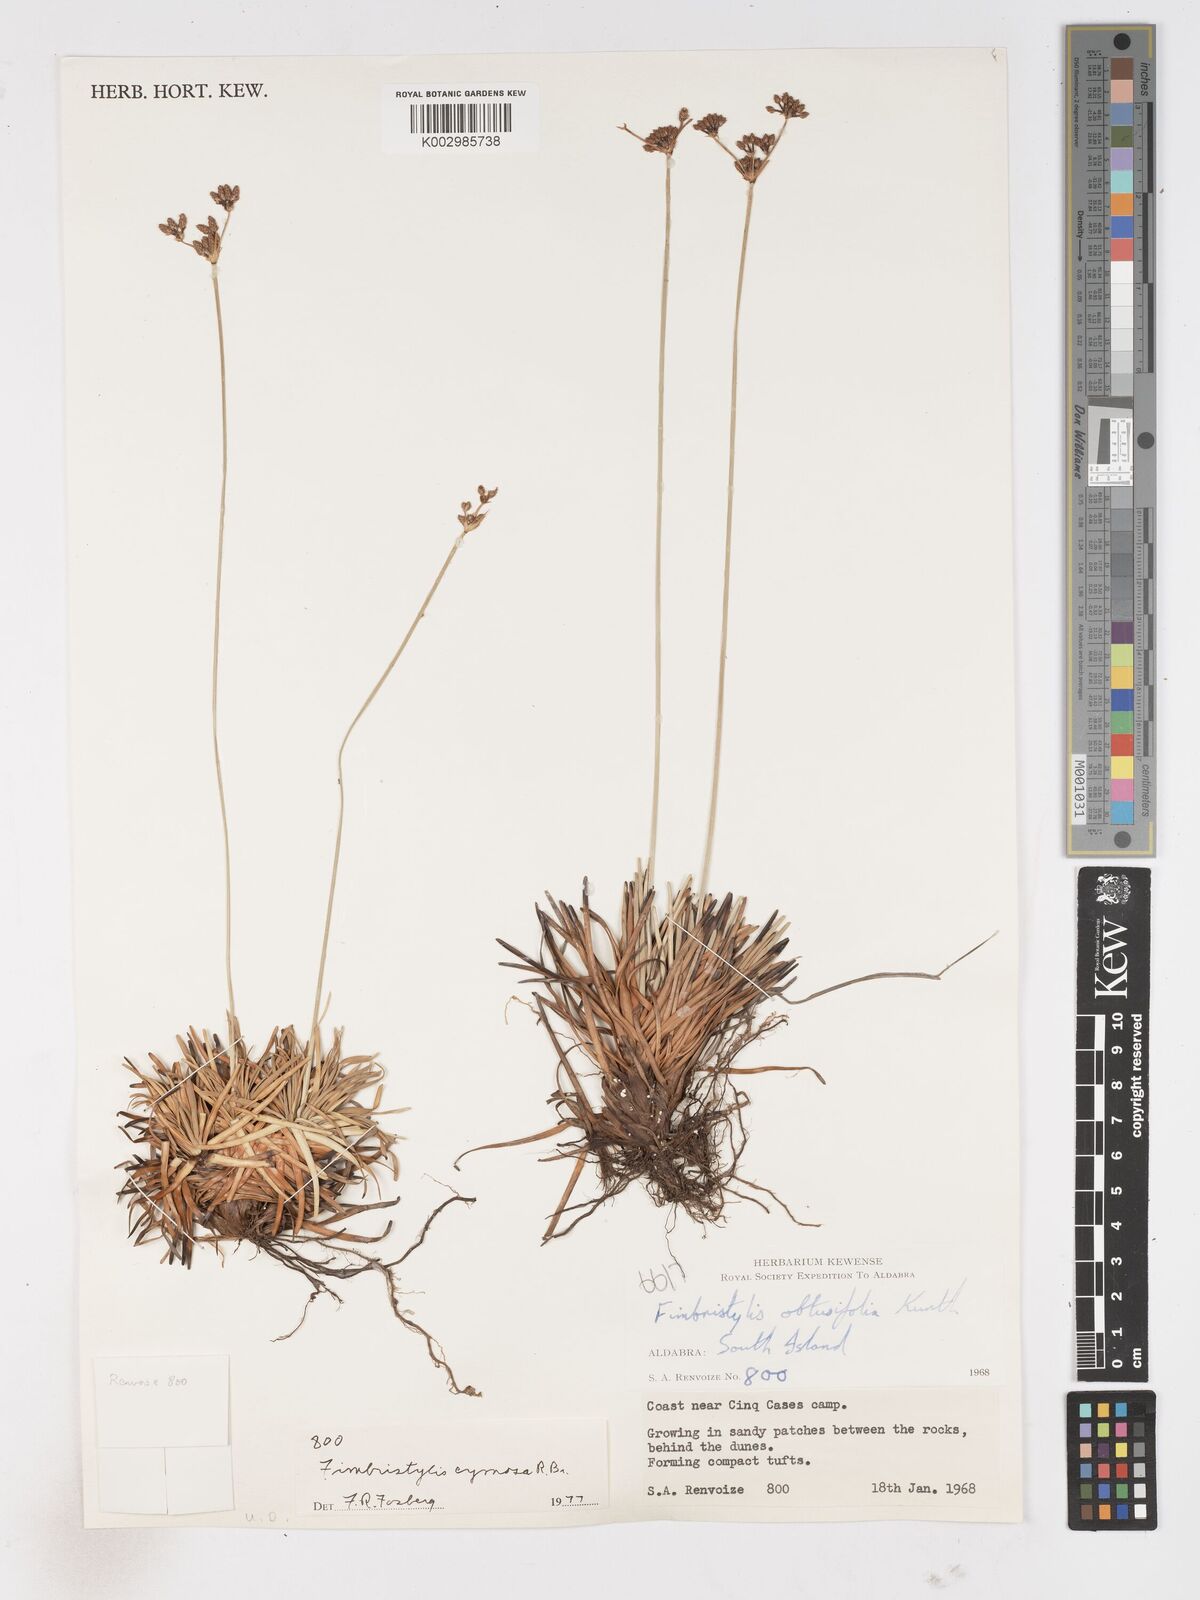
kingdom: Plantae
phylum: Tracheophyta
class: Liliopsida
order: Poales
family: Cyperaceae
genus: Fimbristylis
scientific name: Fimbristylis cymosa
